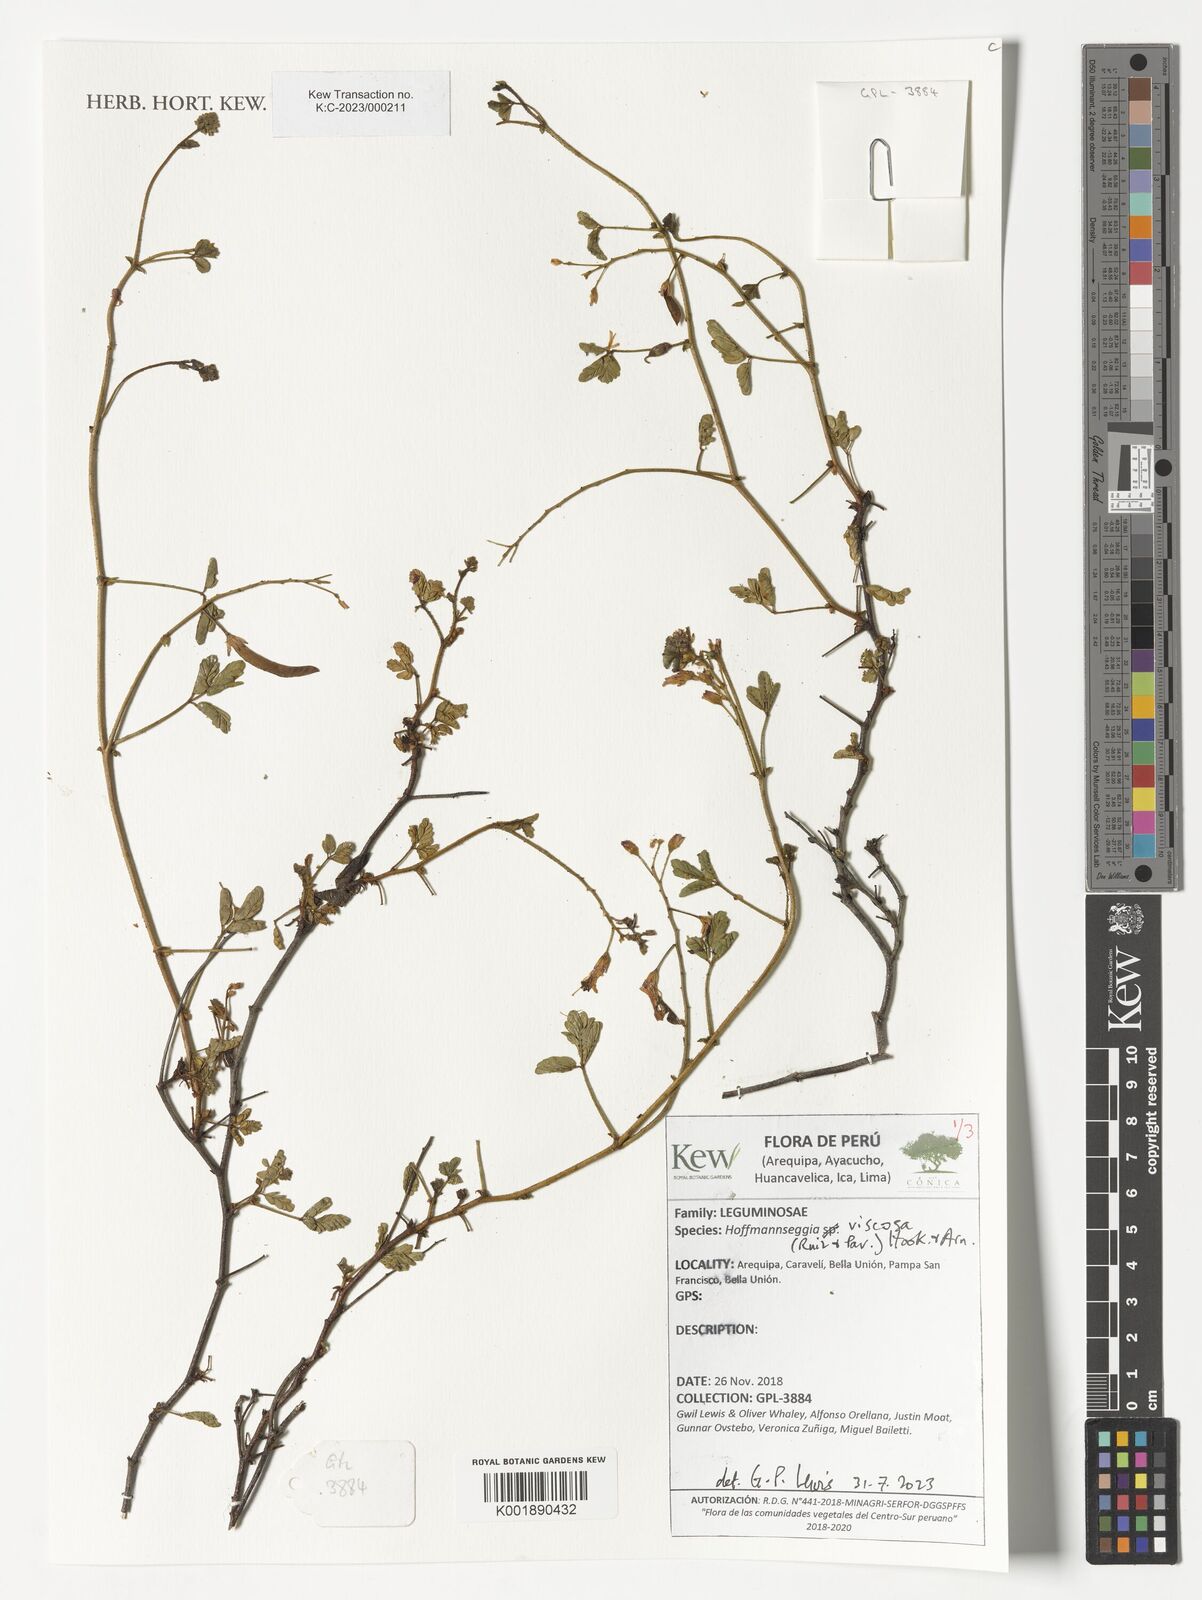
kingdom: Plantae
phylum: Tracheophyta
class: Magnoliopsida
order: Fabales
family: Fabaceae
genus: Hoffmannseggia
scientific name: Hoffmannseggia viscosa
